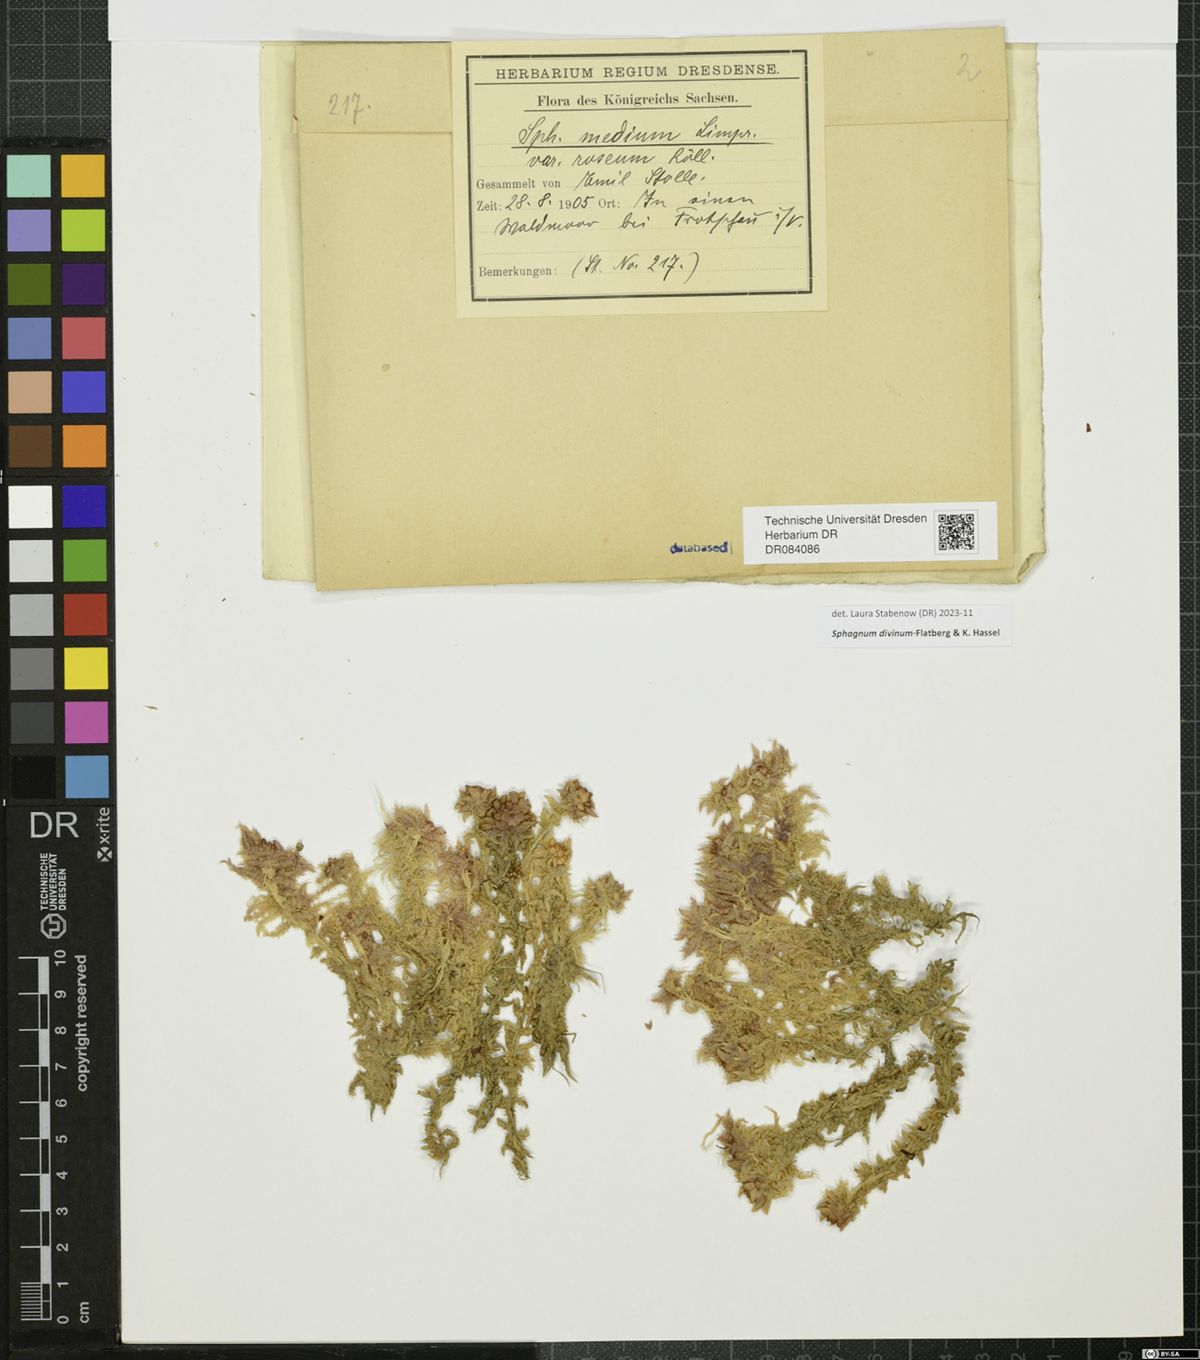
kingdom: Plantae
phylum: Bryophyta
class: Sphagnopsida
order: Sphagnales
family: Sphagnaceae
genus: Sphagnum
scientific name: Sphagnum divinum
